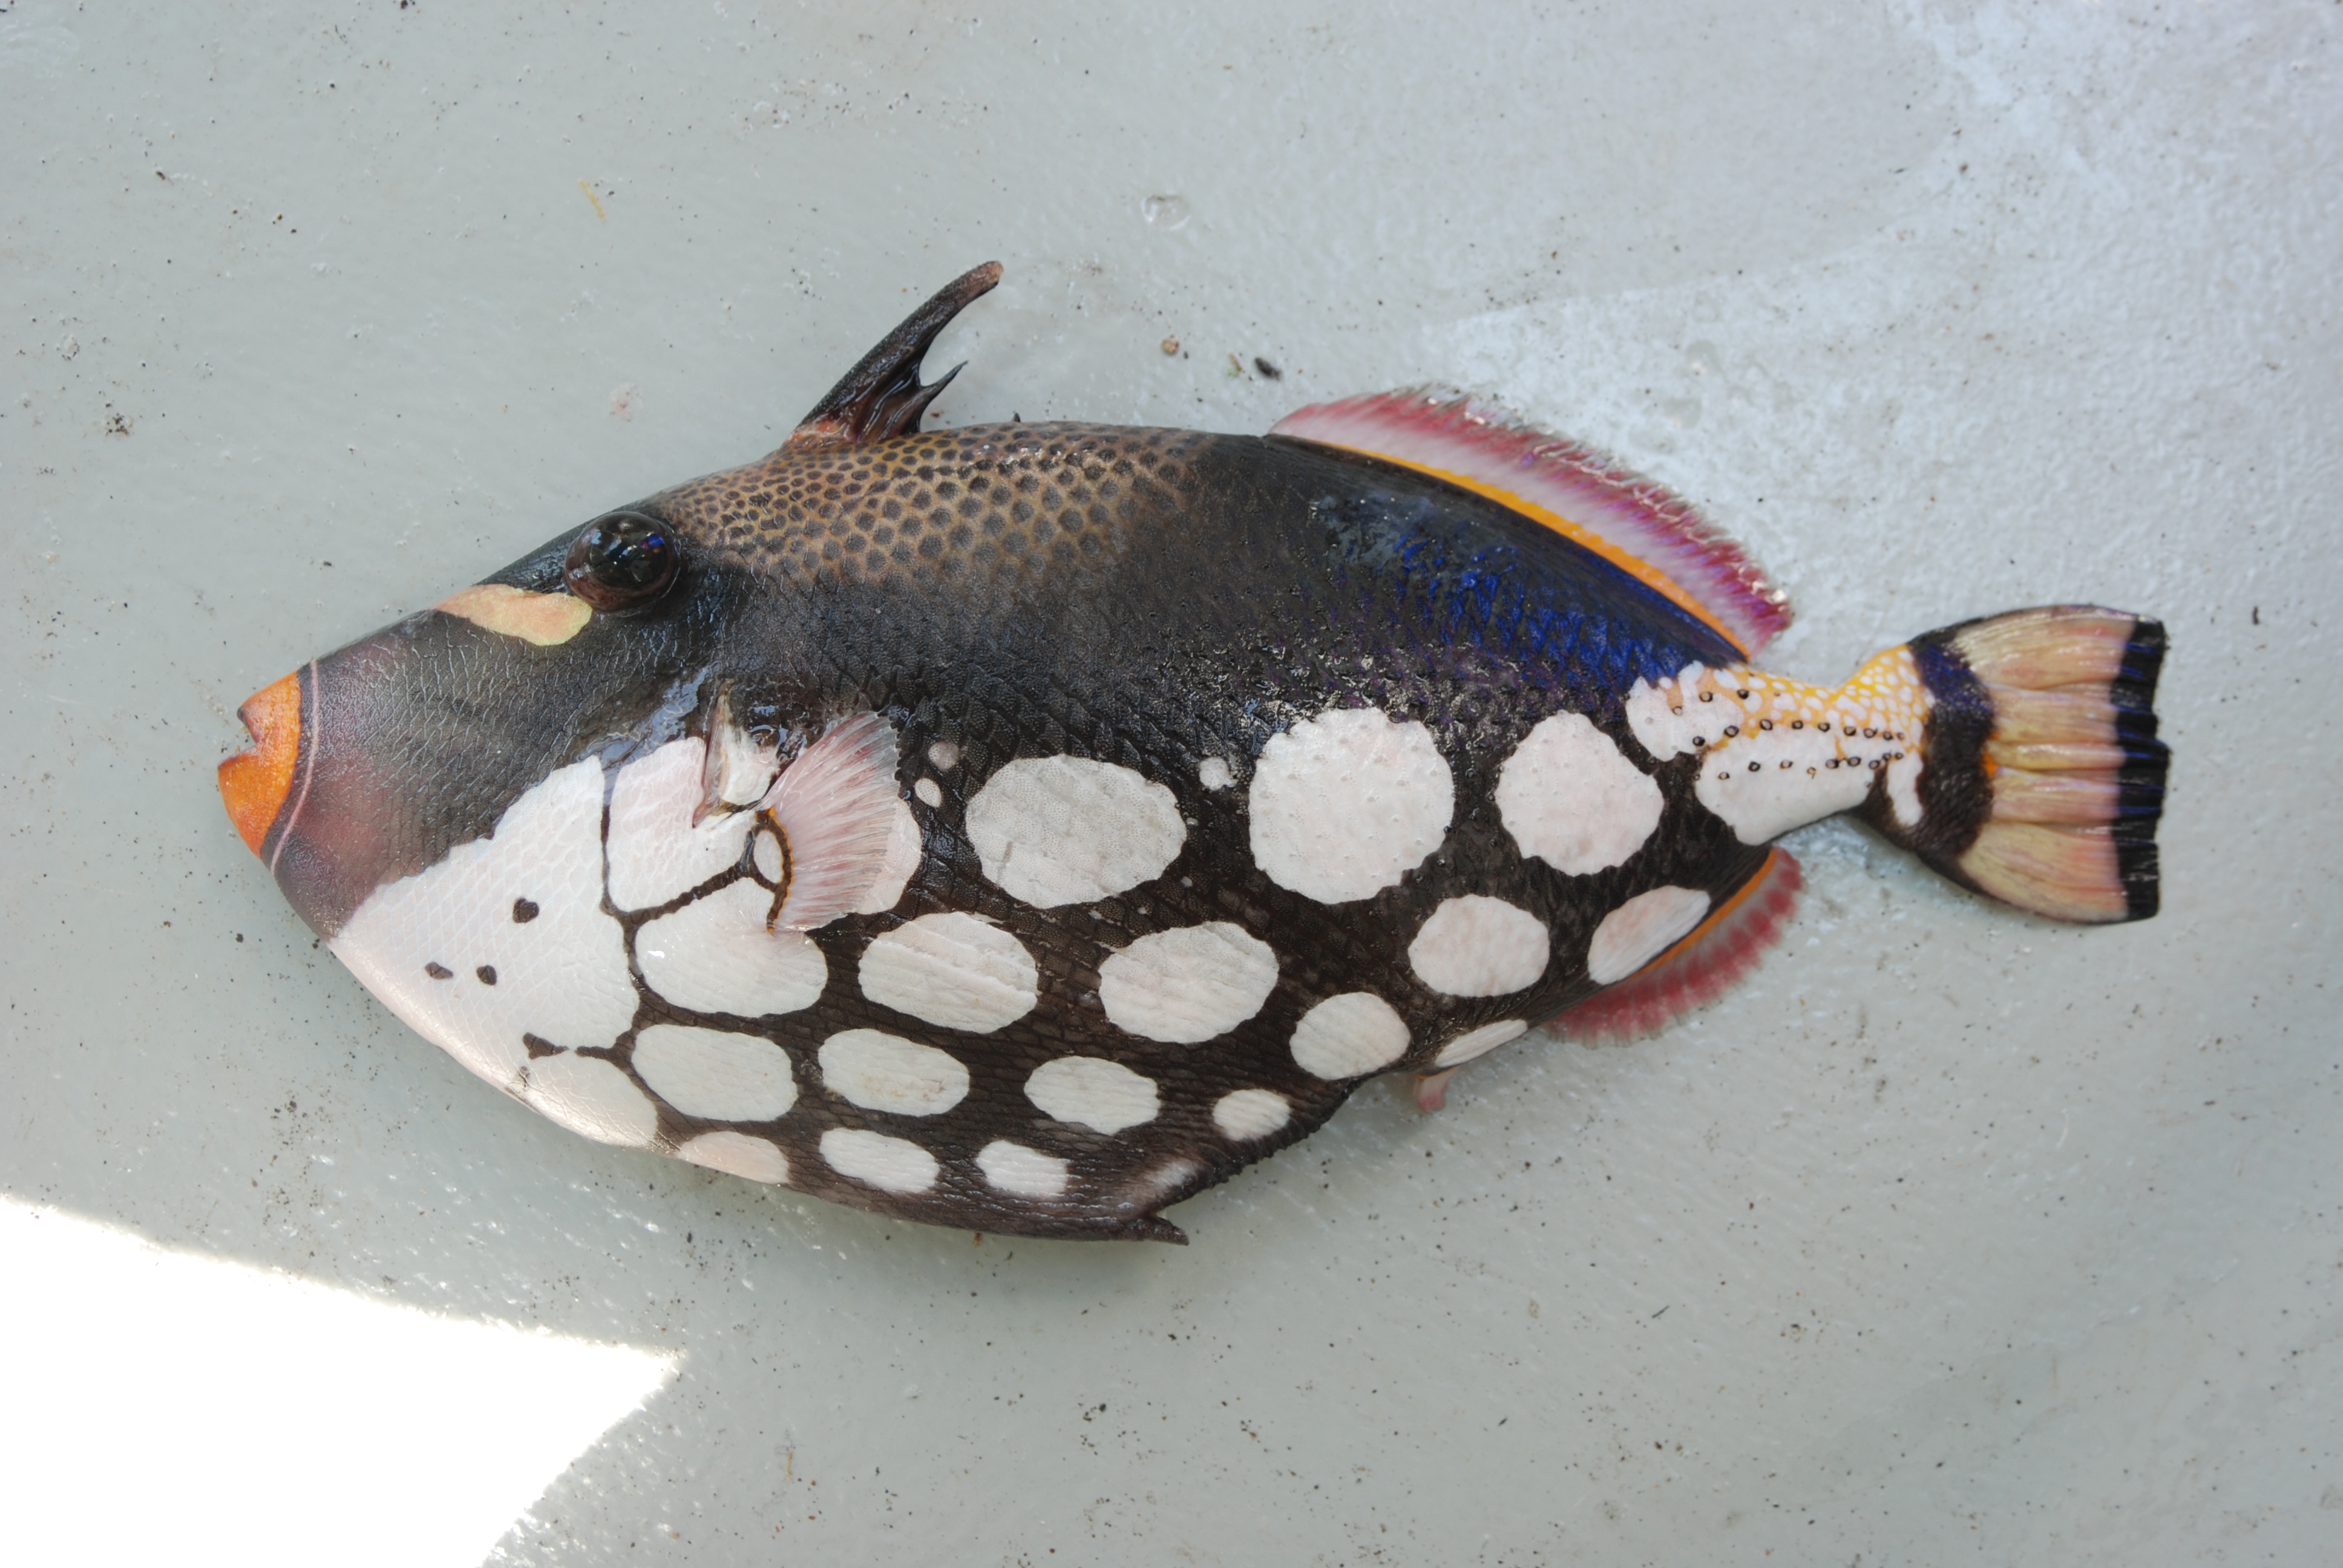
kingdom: Animalia
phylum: Chordata
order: Tetraodontiformes
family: Balistidae
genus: Balistoides
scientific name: Balistoides conspicillum
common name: Clown triggerfish
